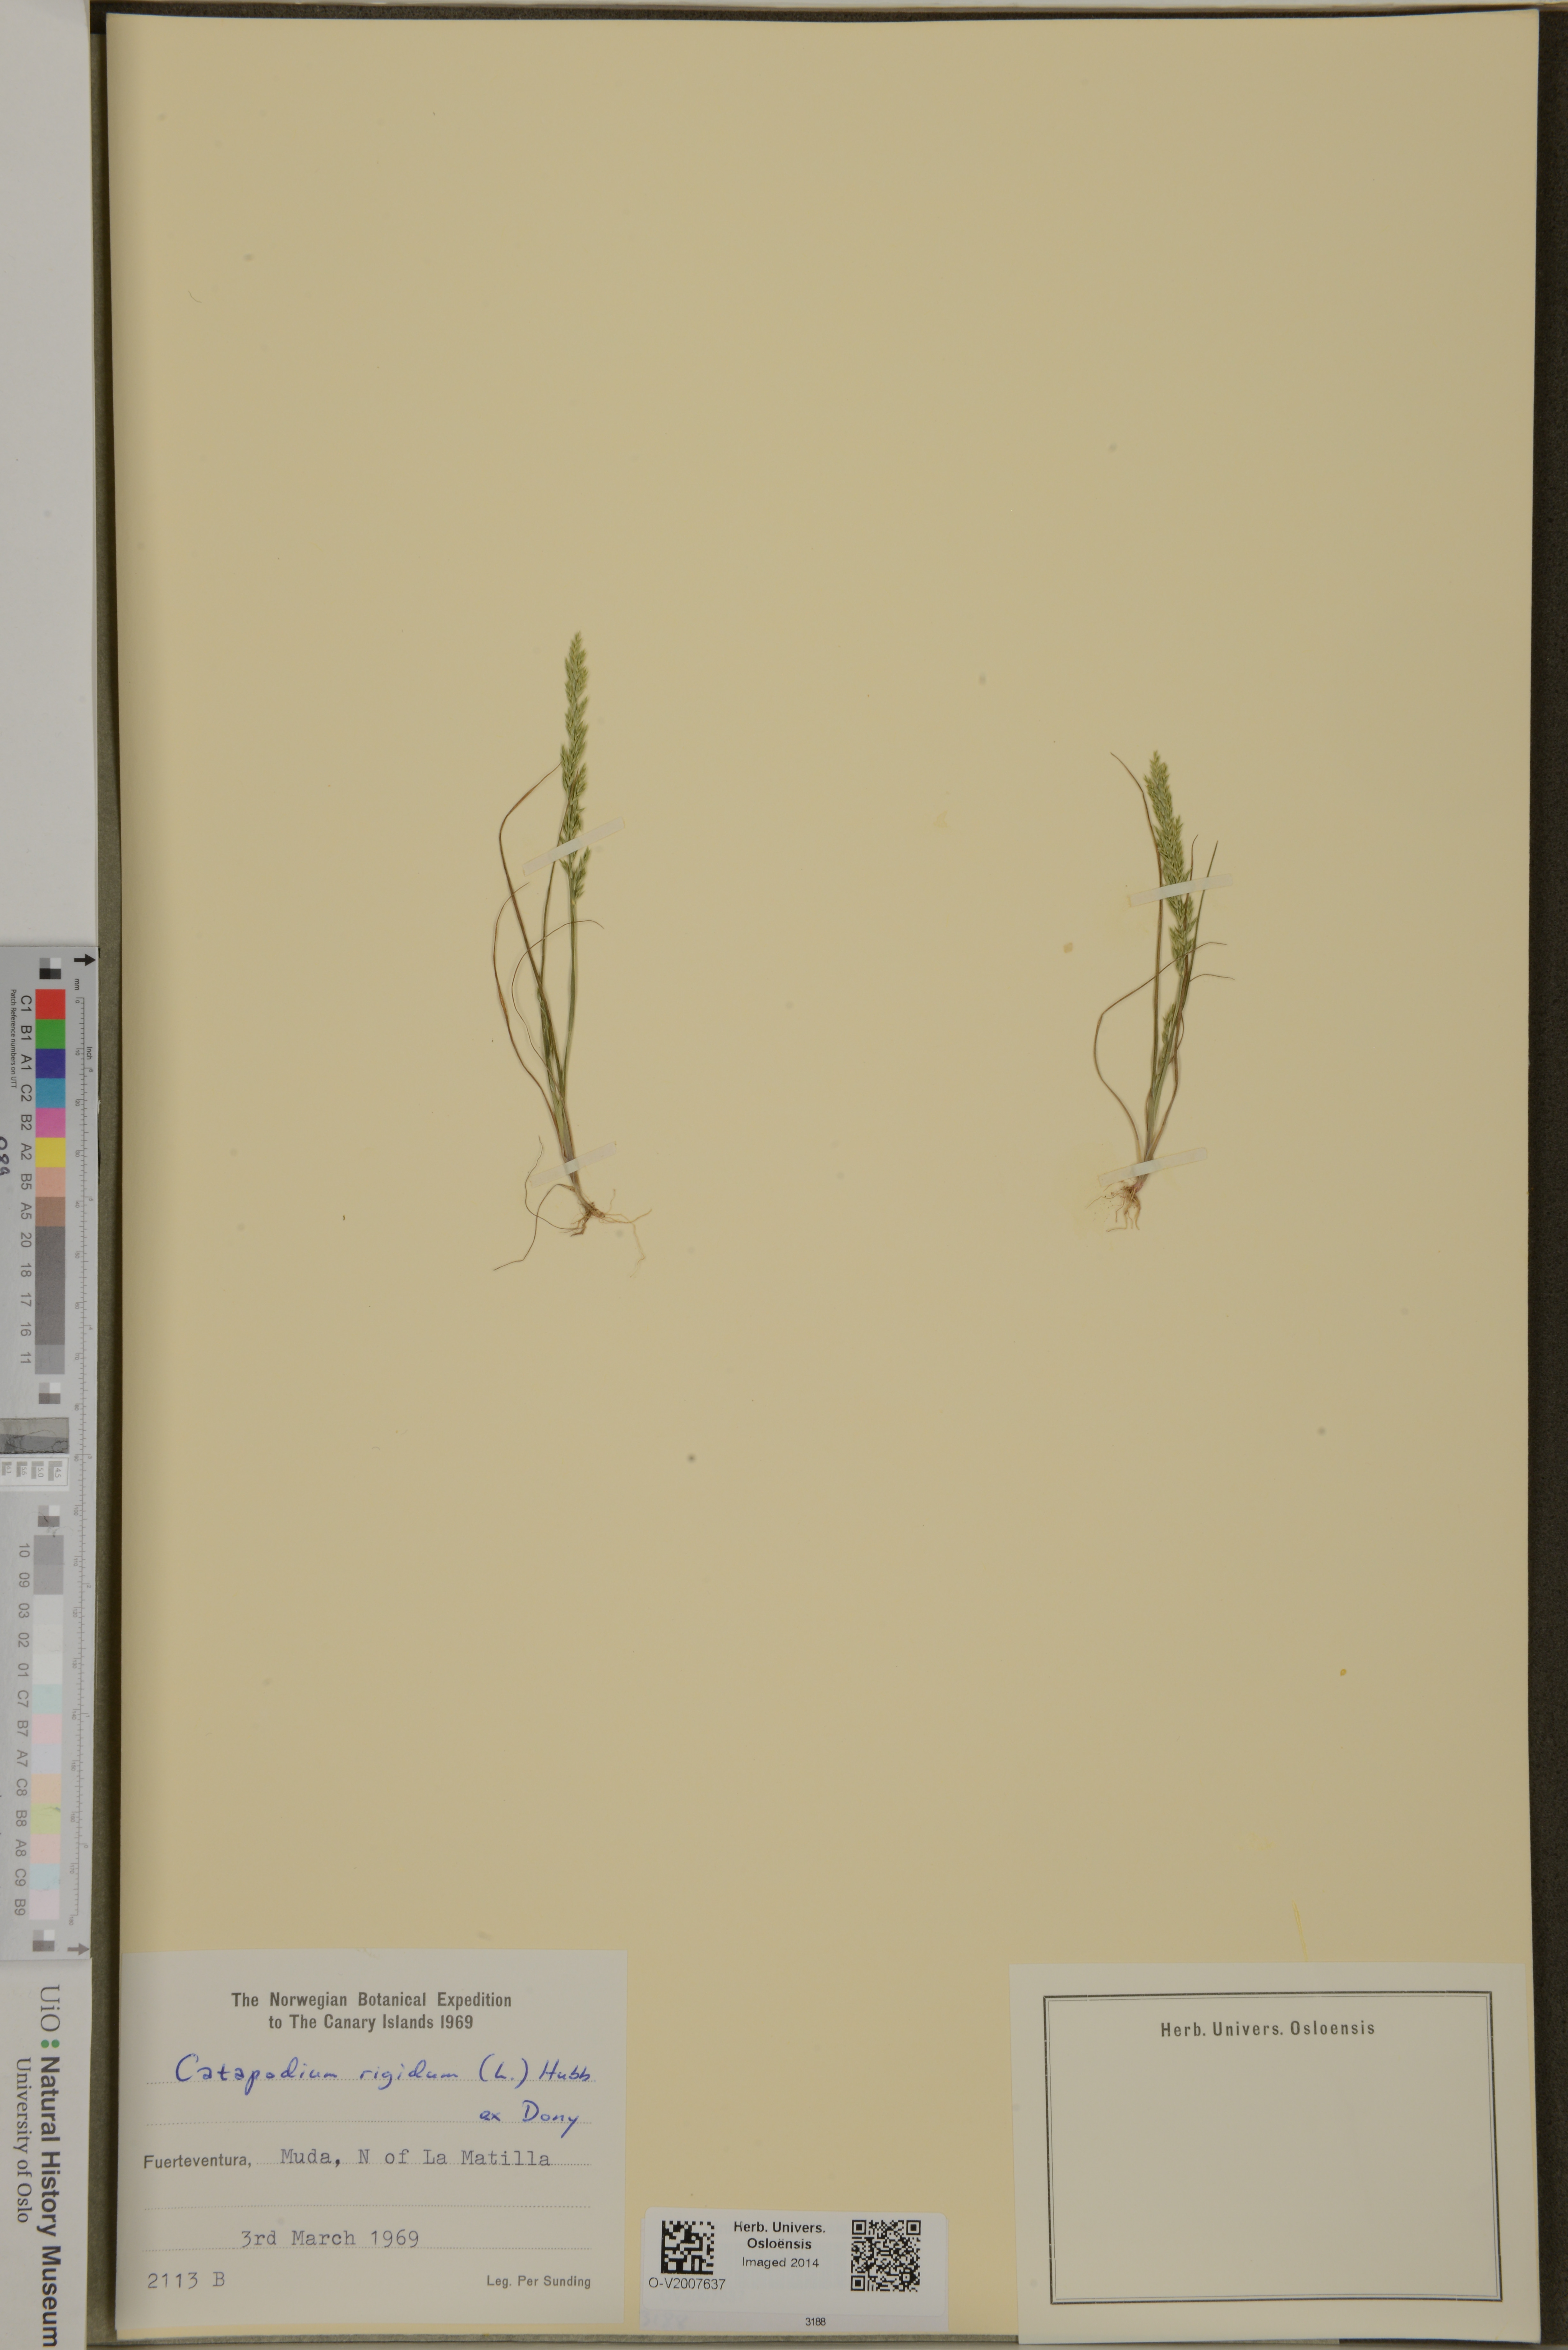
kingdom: Plantae
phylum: Tracheophyta
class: Liliopsida
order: Poales
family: Poaceae
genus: Catapodium
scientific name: Catapodium rigidum
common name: Fern-grass
